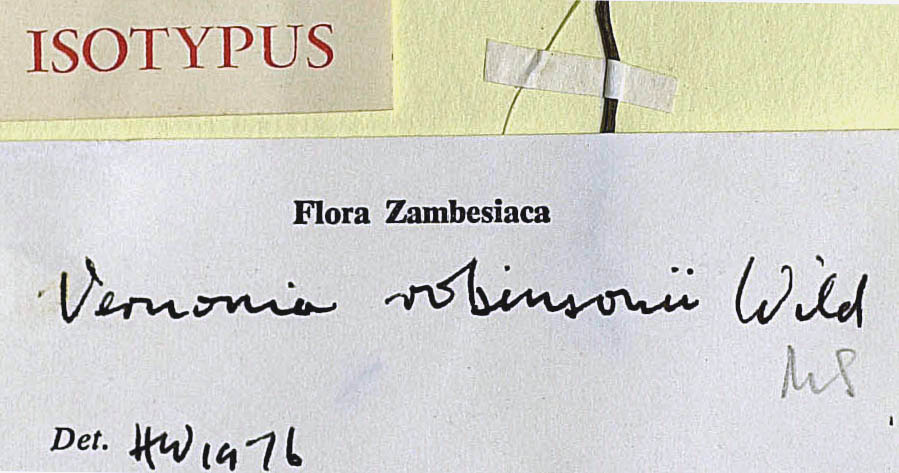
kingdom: Plantae
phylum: Tracheophyta
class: Magnoliopsida
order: Asterales
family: Asteraceae
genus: Vernonia
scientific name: Vernonia robinsonii
